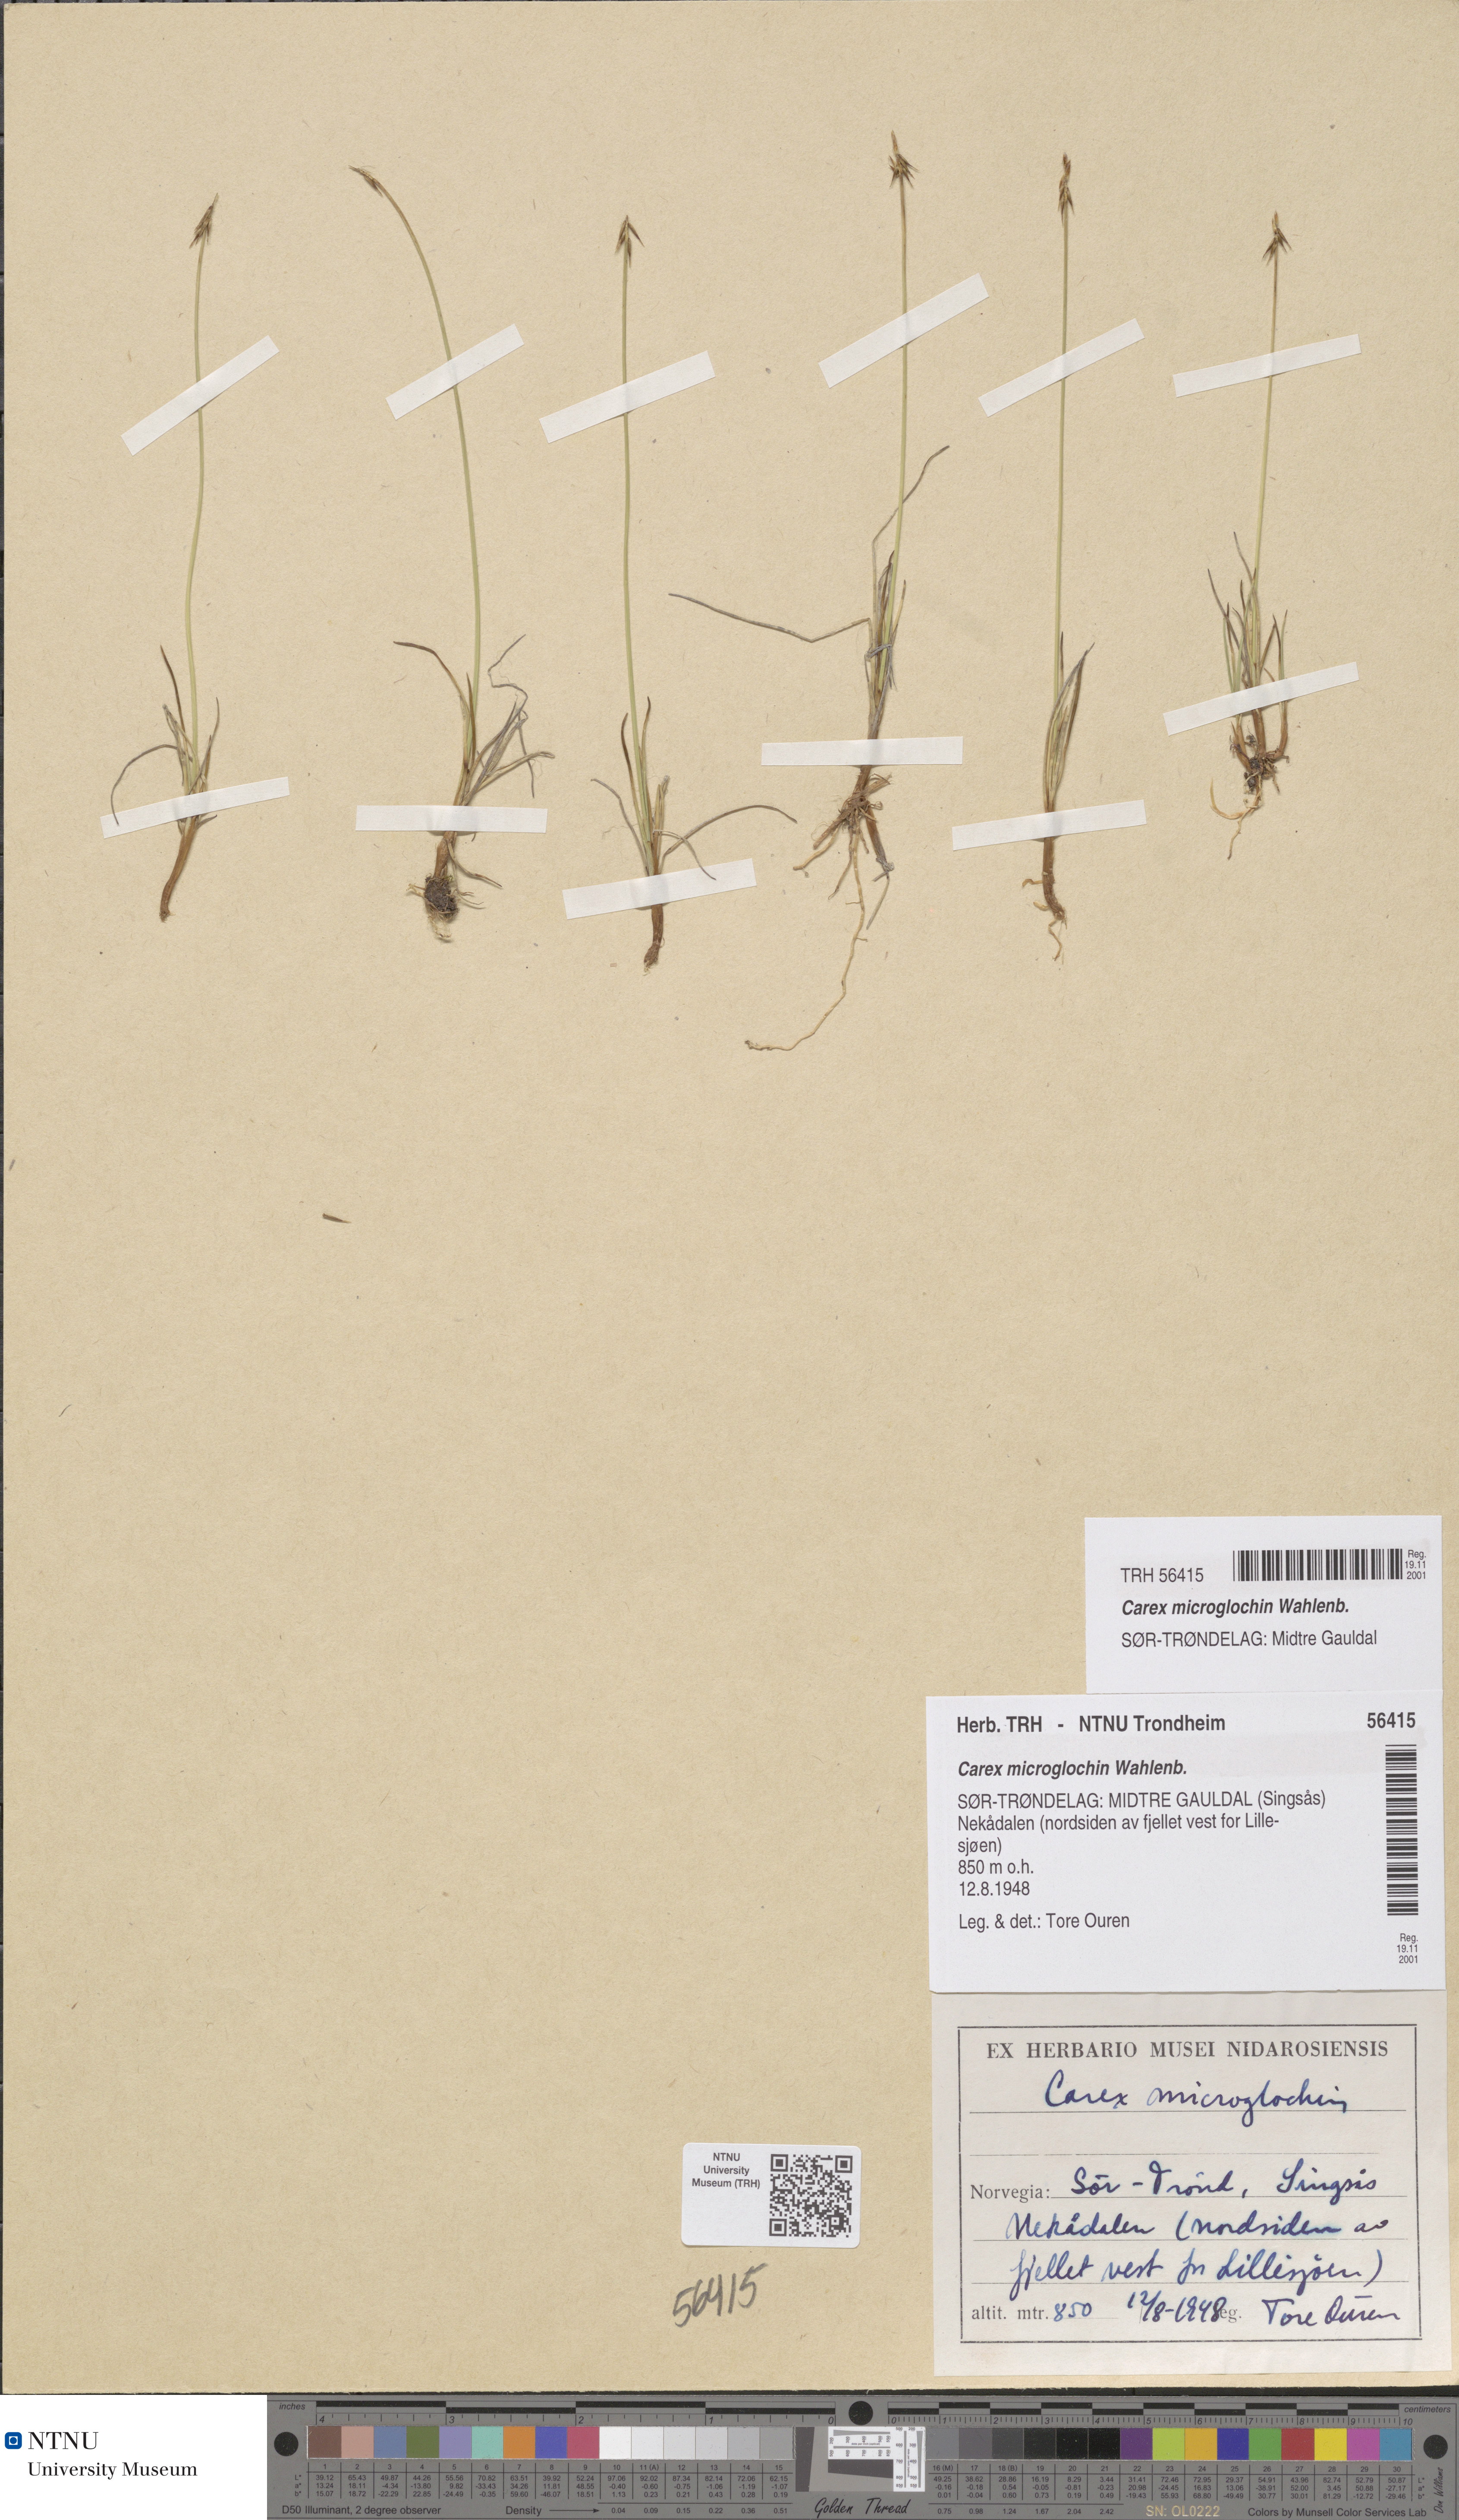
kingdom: Plantae
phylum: Tracheophyta
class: Liliopsida
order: Poales
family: Cyperaceae
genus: Carex
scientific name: Carex microglochin
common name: Bristle sedge
